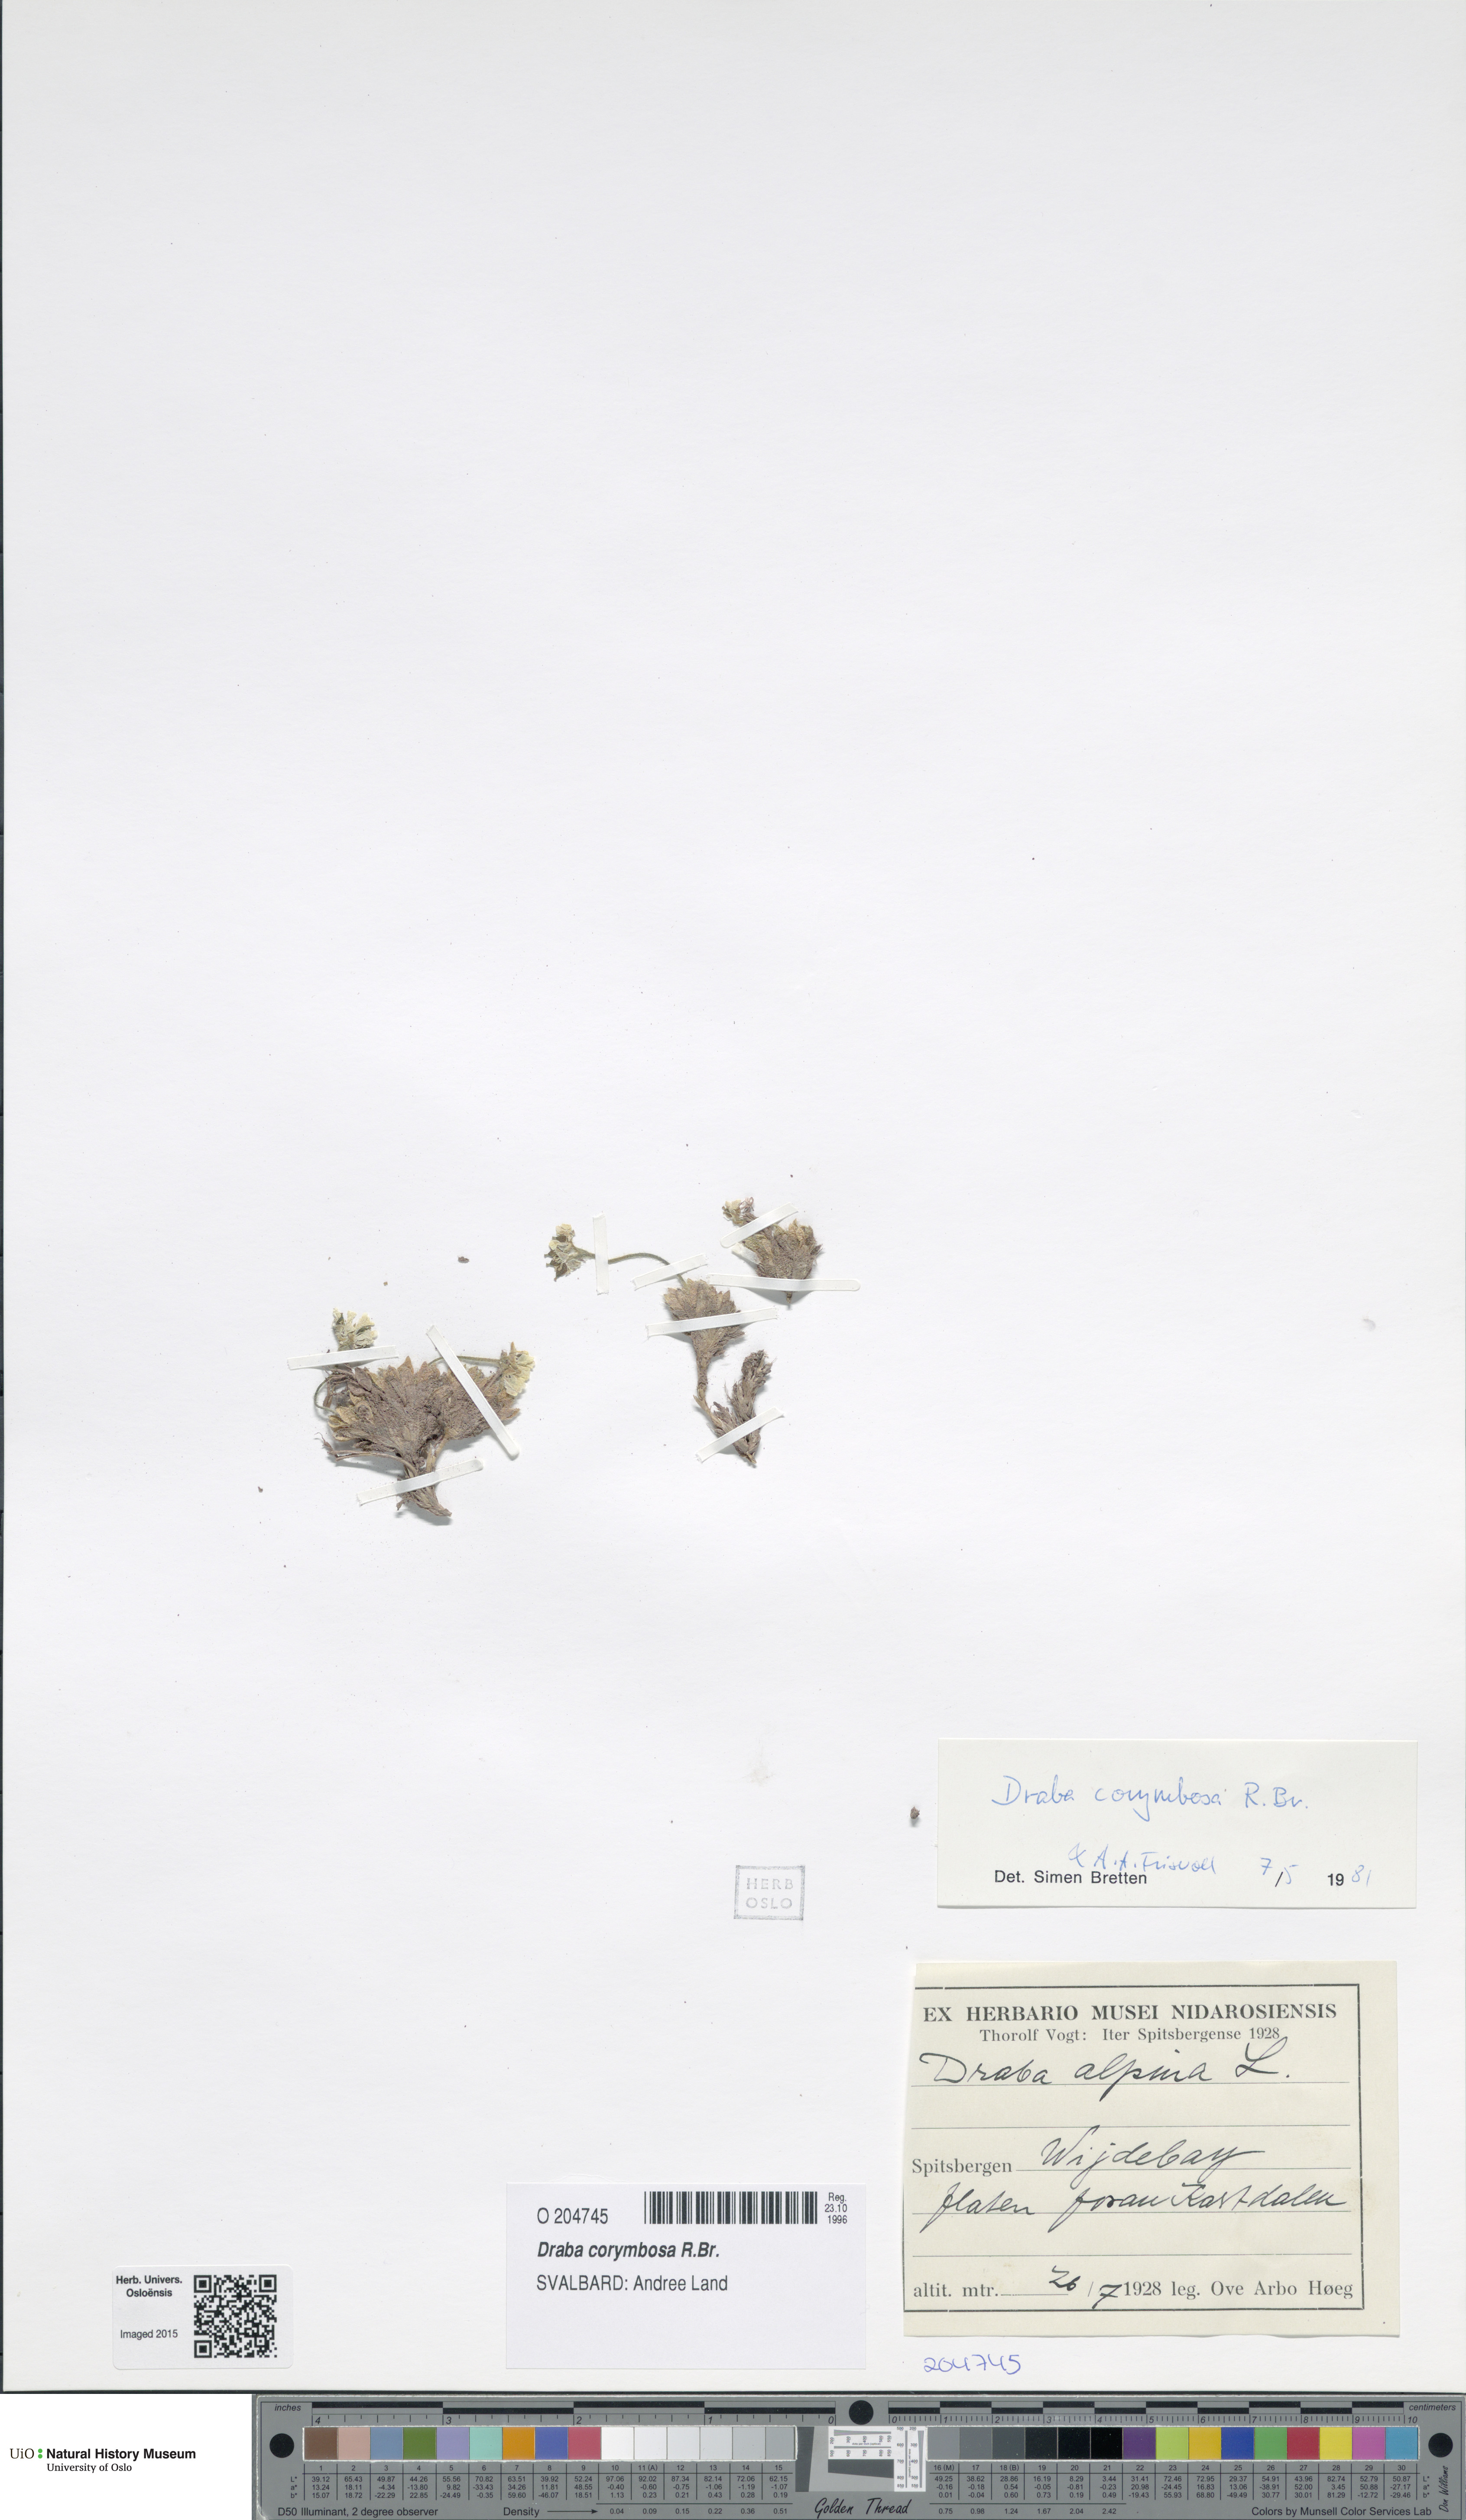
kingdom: Plantae
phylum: Tracheophyta
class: Magnoliopsida
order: Brassicales
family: Brassicaceae
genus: Draba
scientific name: Draba corymbosa
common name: Cushion whitlow-grass
